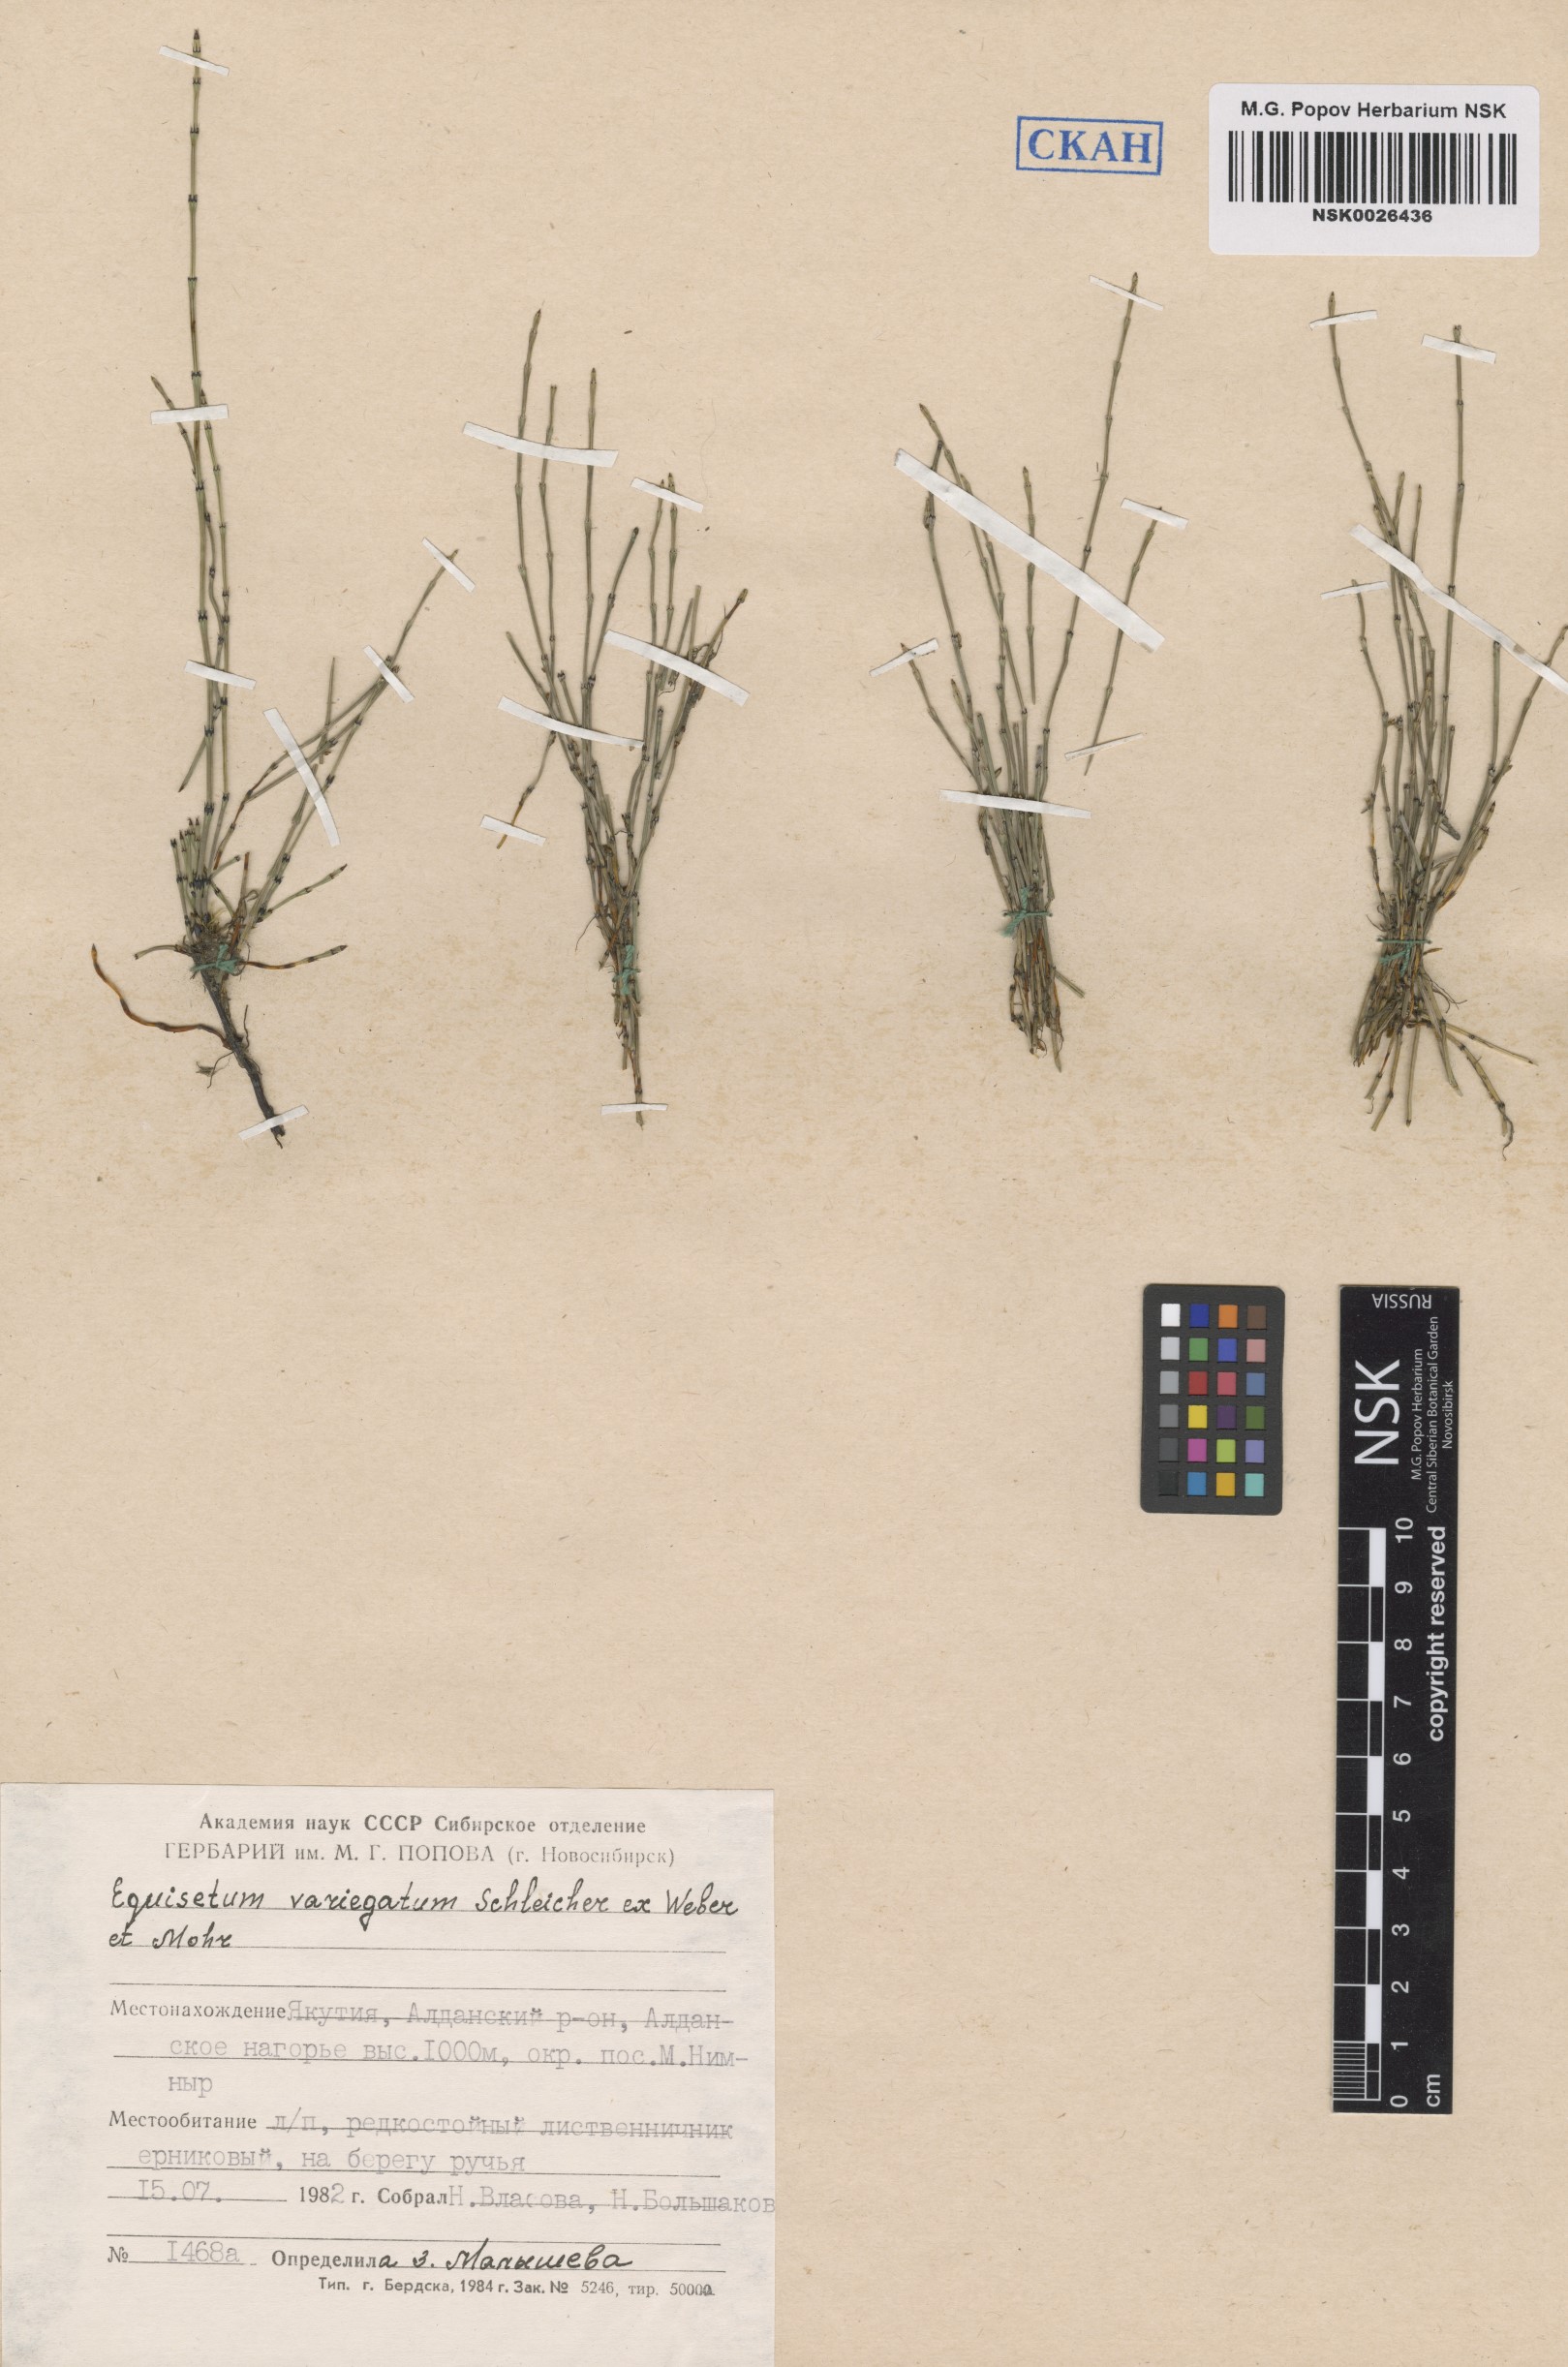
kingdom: Plantae
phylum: Tracheophyta
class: Polypodiopsida
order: Equisetales
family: Equisetaceae
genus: Equisetum
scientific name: Equisetum variegatum
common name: Variegated horsetail
